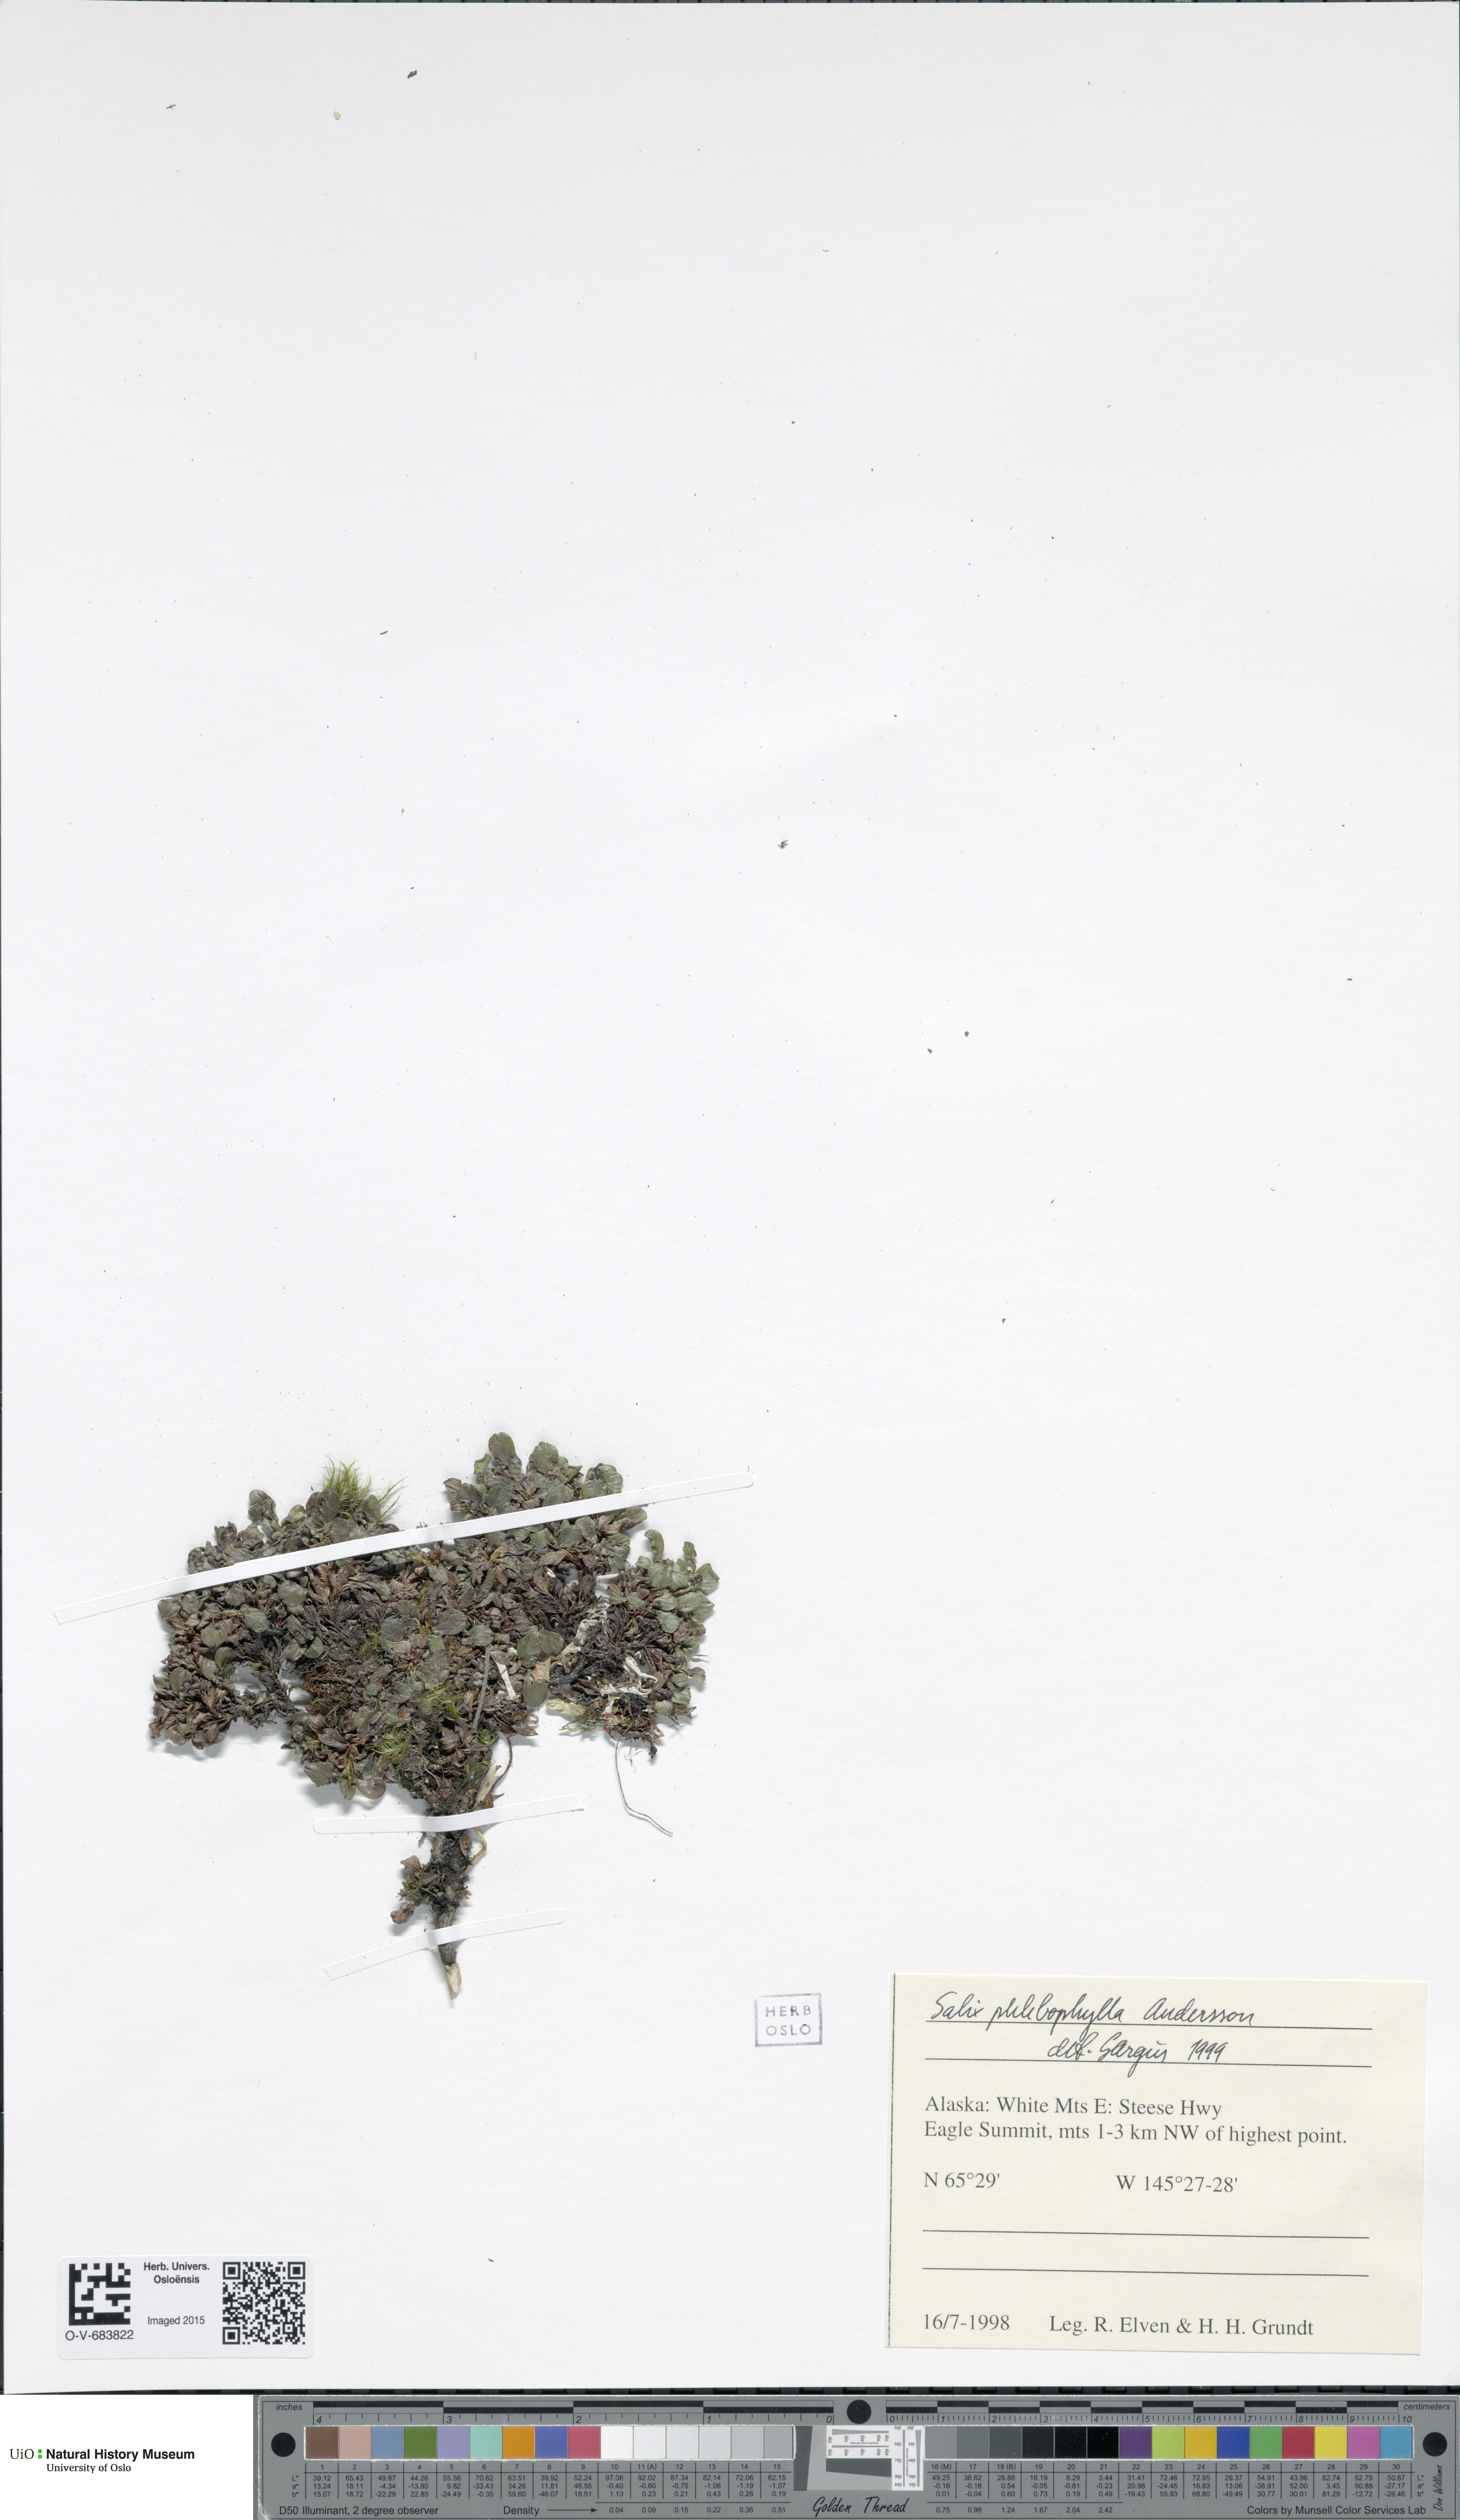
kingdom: Plantae
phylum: Tracheophyta
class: Magnoliopsida
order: Malpighiales
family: Salicaceae
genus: Salix
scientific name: Salix phlebophylla
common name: Skeleton-leaved willow
